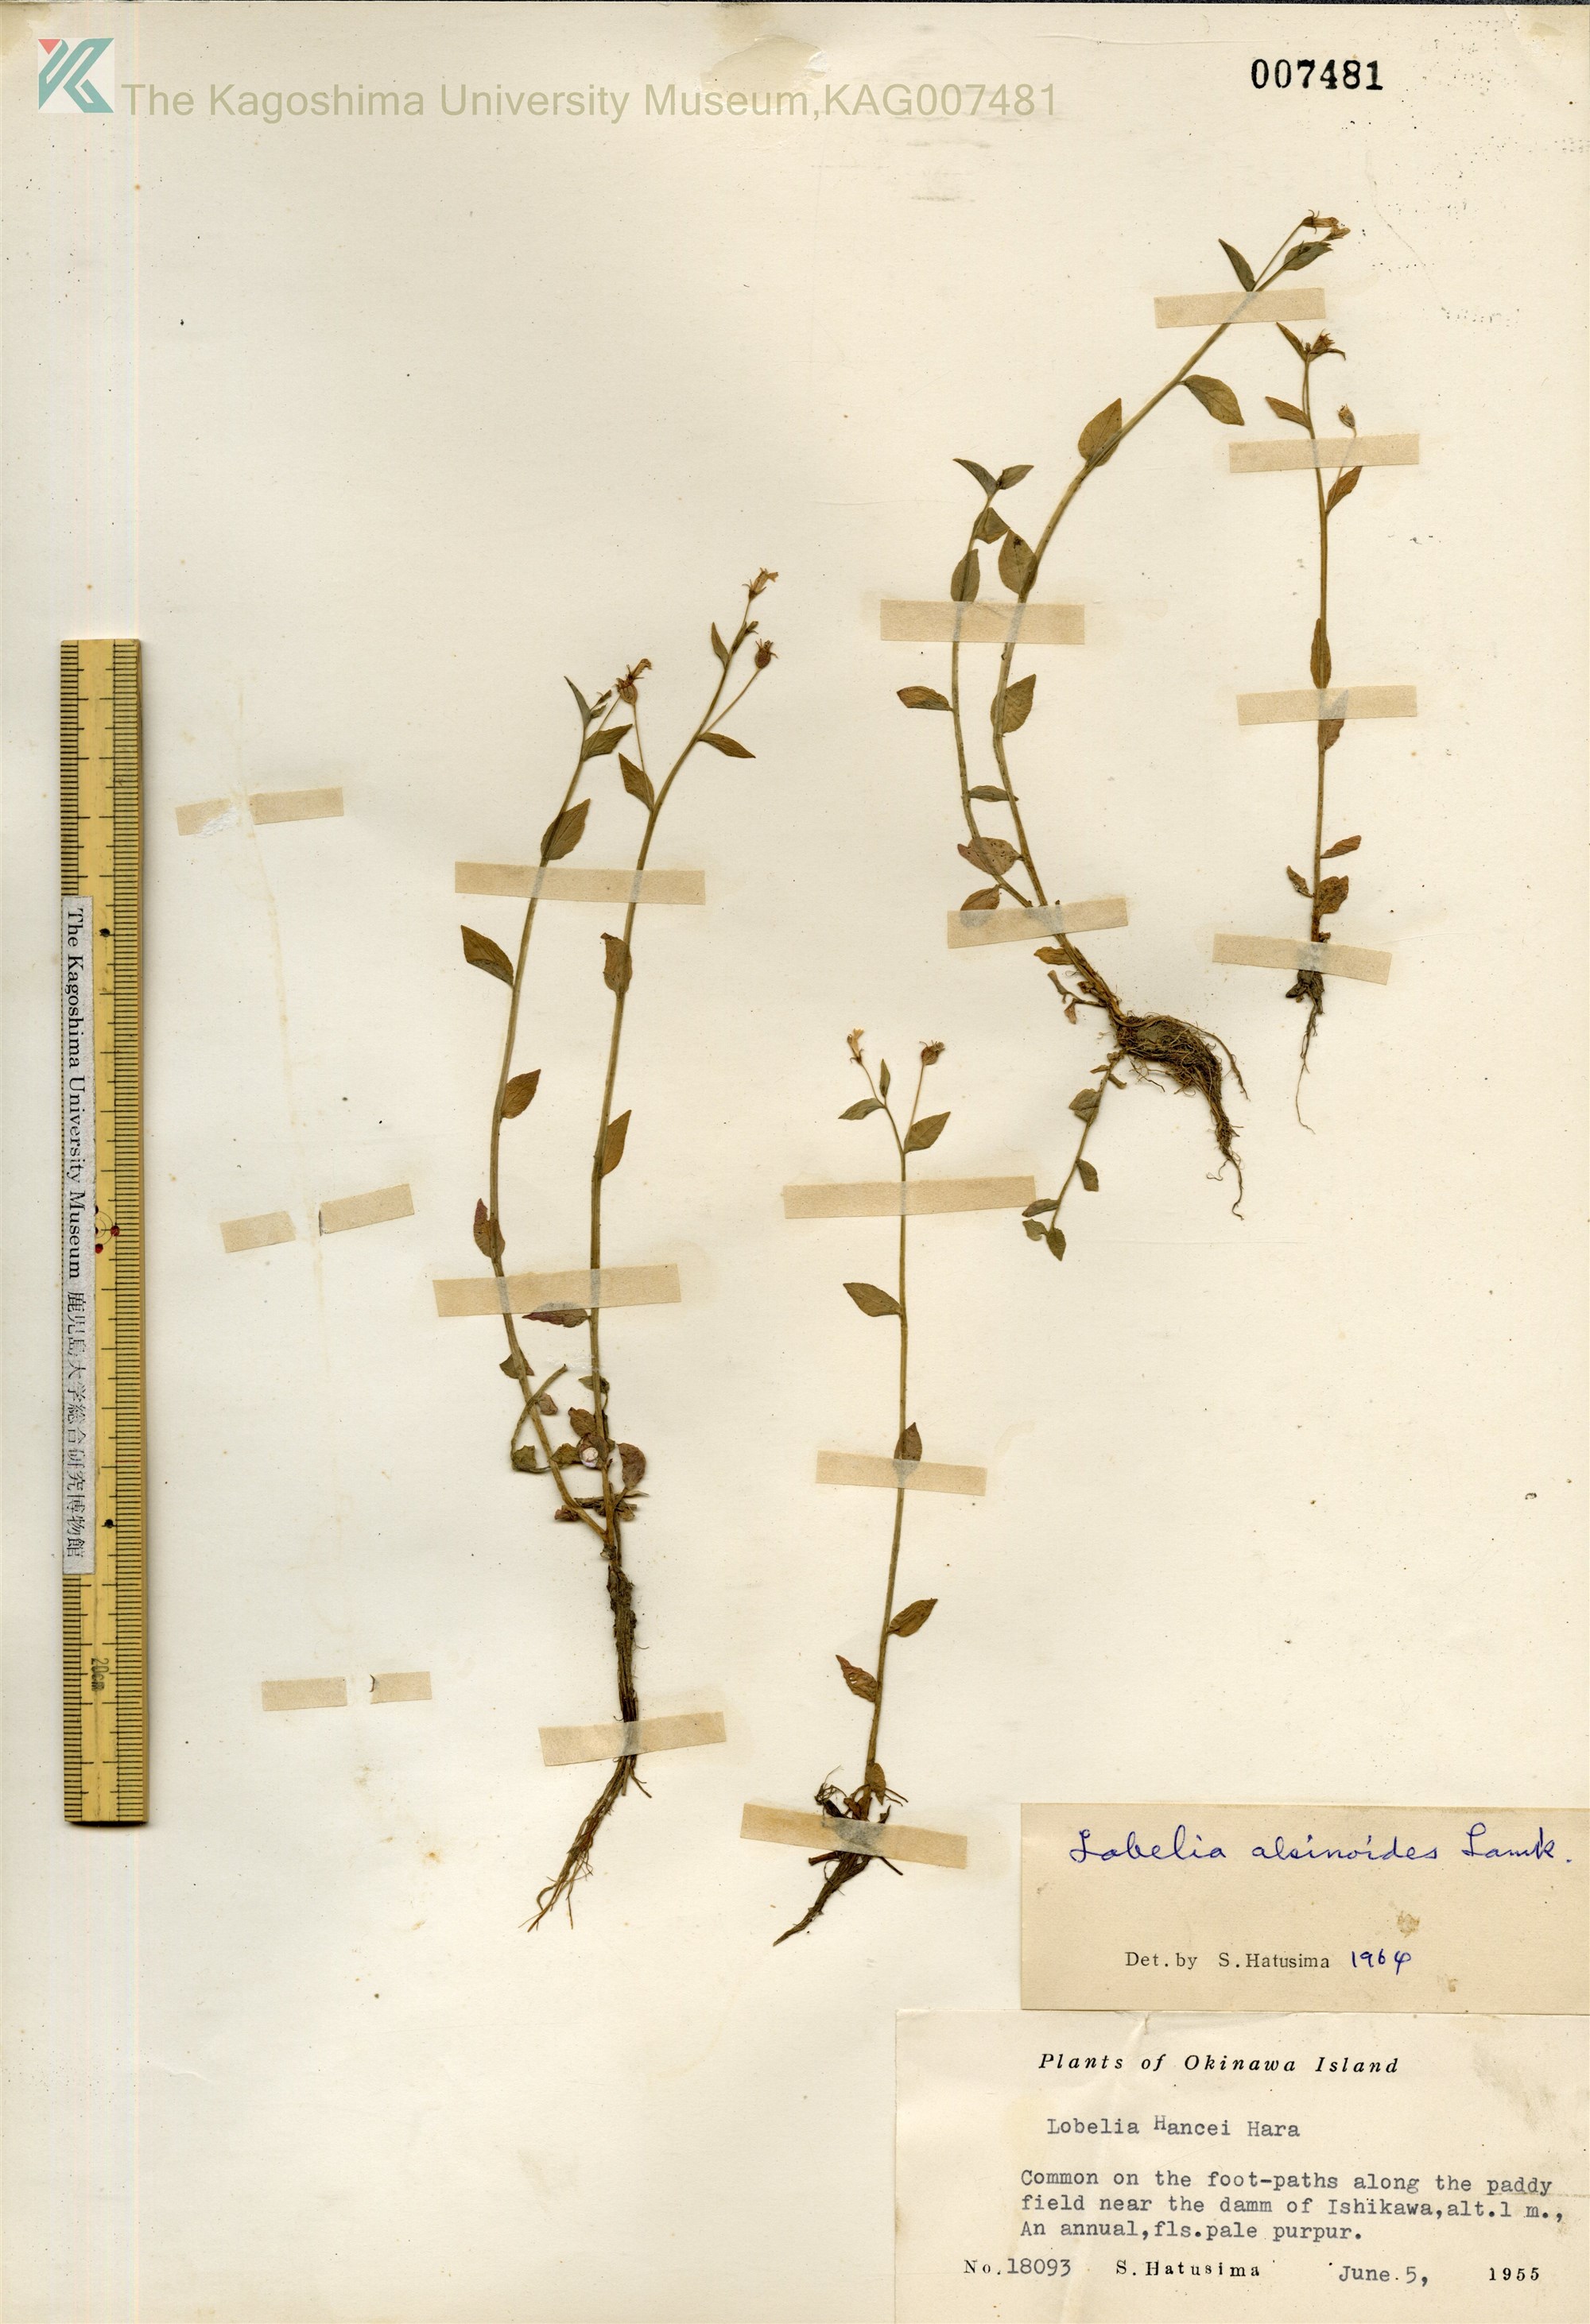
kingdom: Plantae
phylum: Tracheophyta
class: Magnoliopsida
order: Asterales
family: Campanulaceae
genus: Lobelia
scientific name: Lobelia alsinoides
